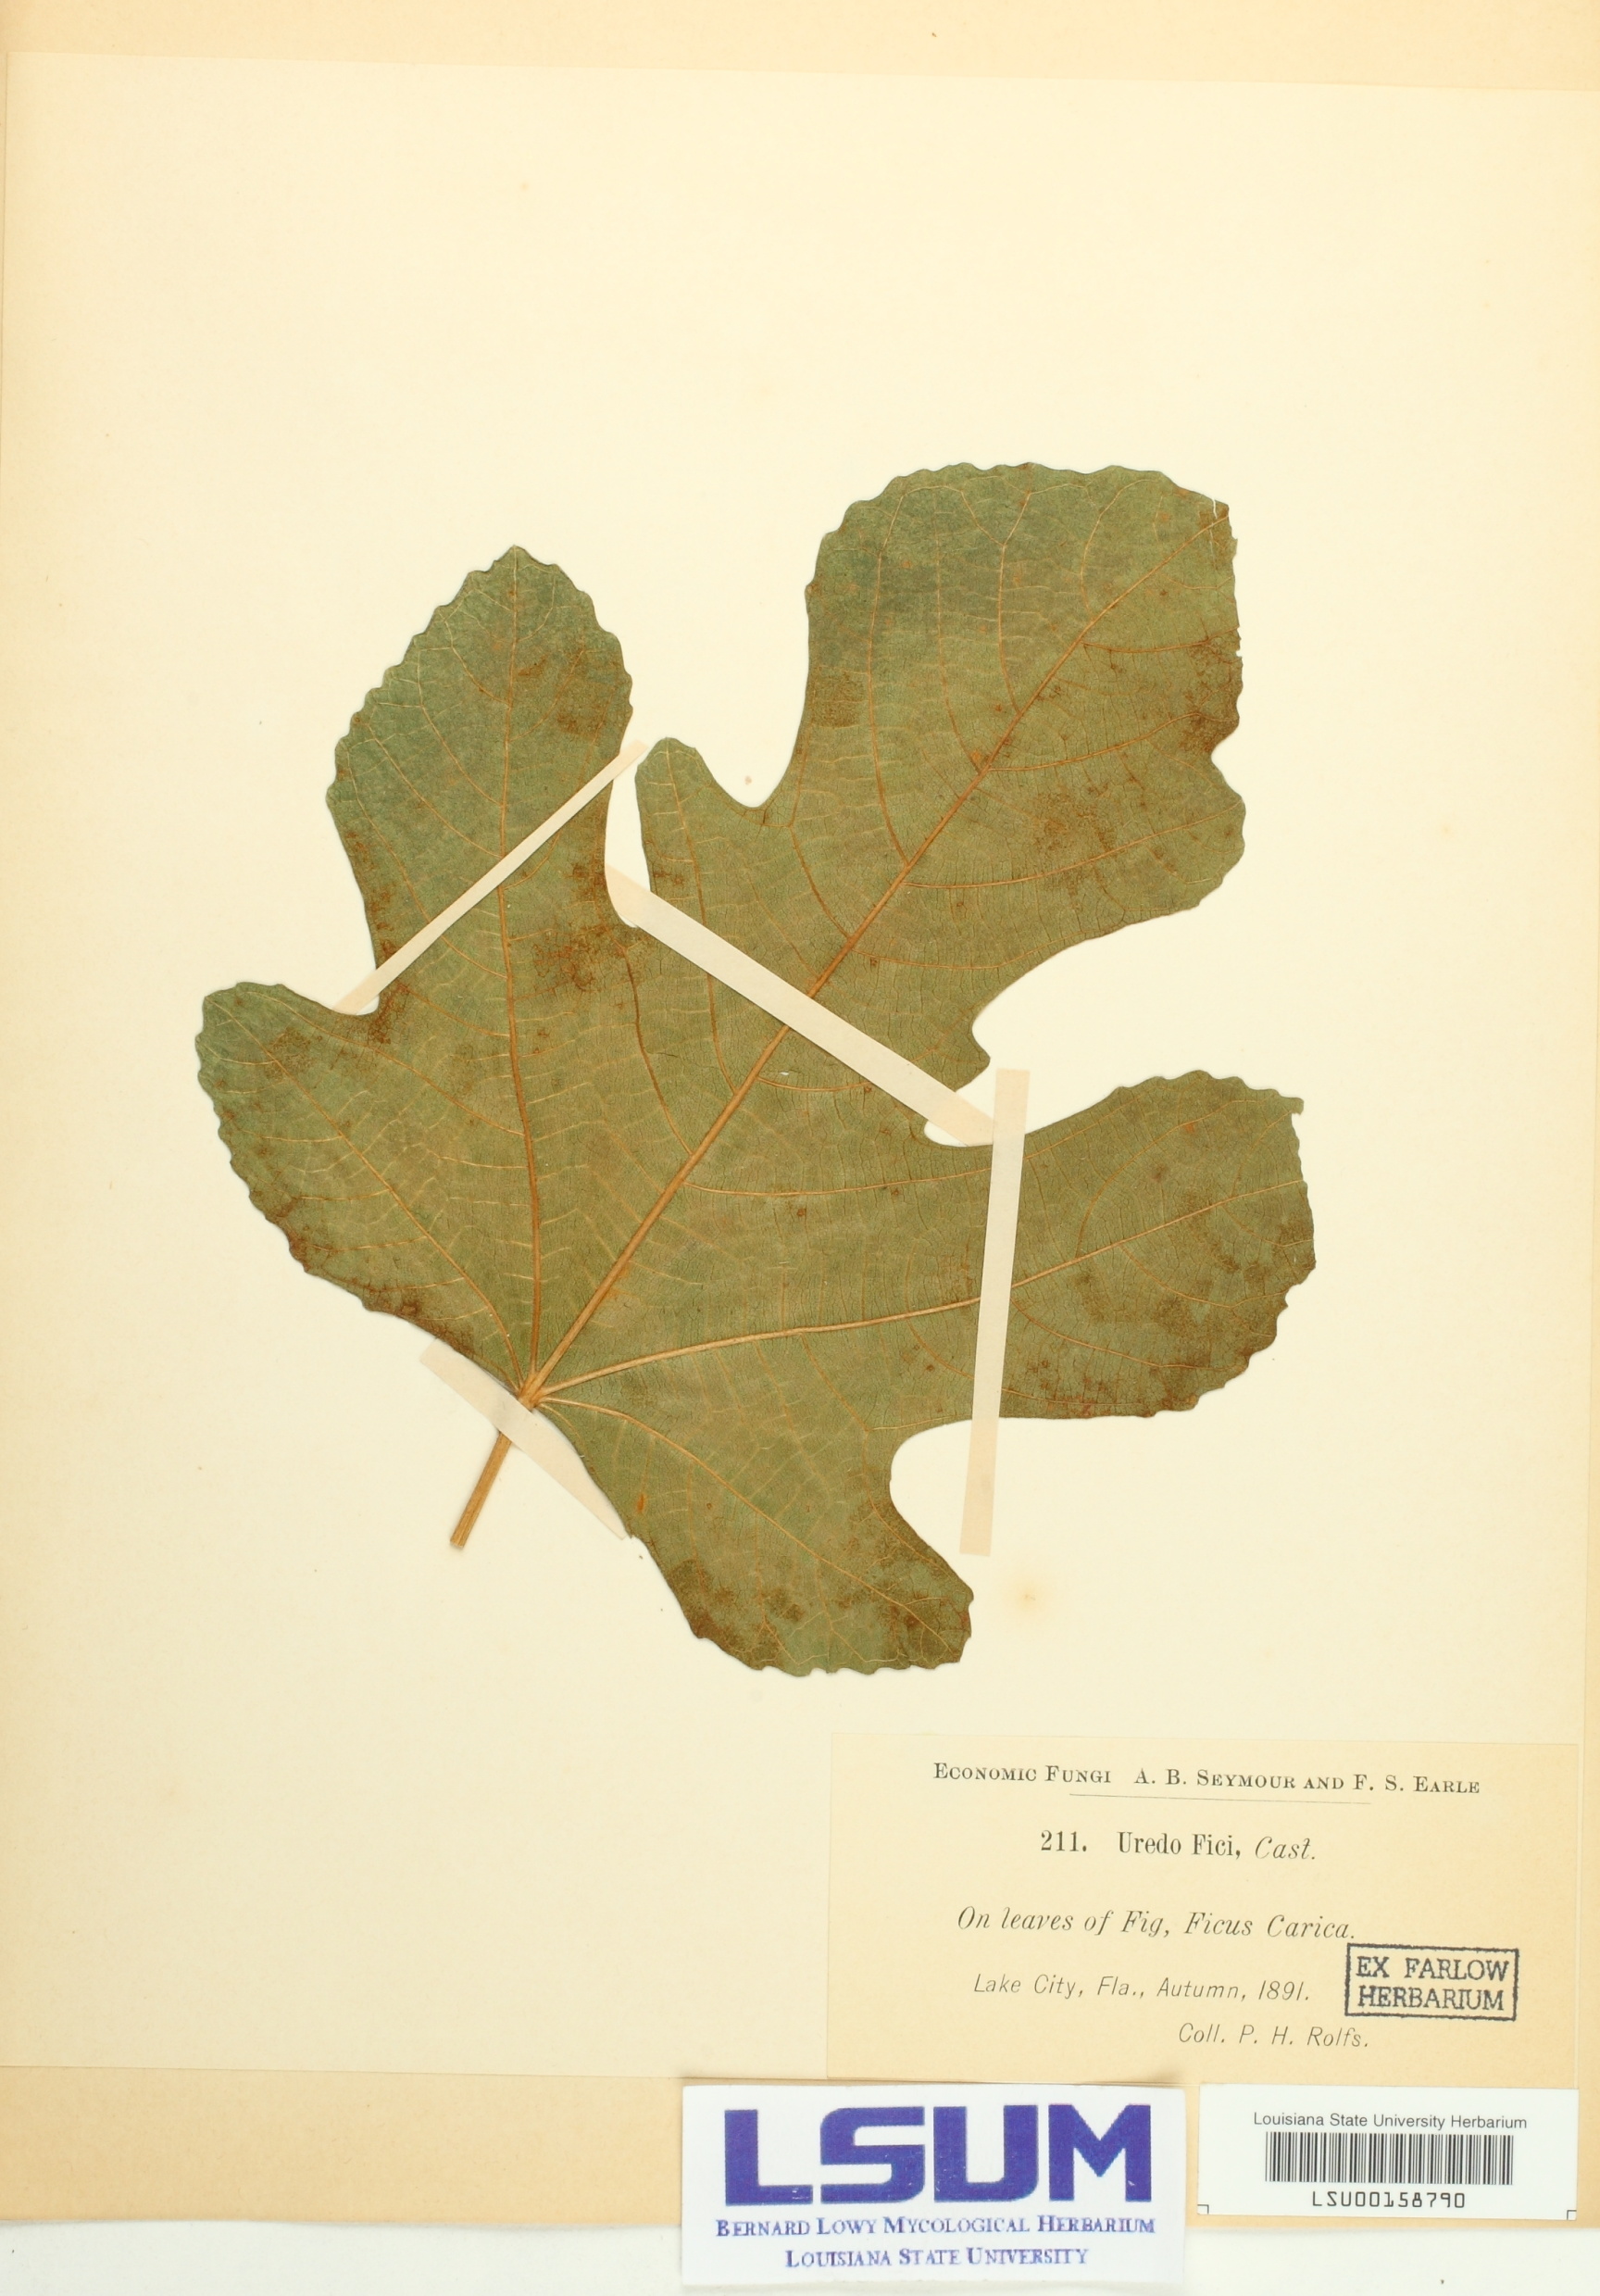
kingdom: Fungi
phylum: Basidiomycota
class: Pucciniomycetes
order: Pucciniales
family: Phakopsoraceae
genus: Cerotelium
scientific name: Cerotelium fici
